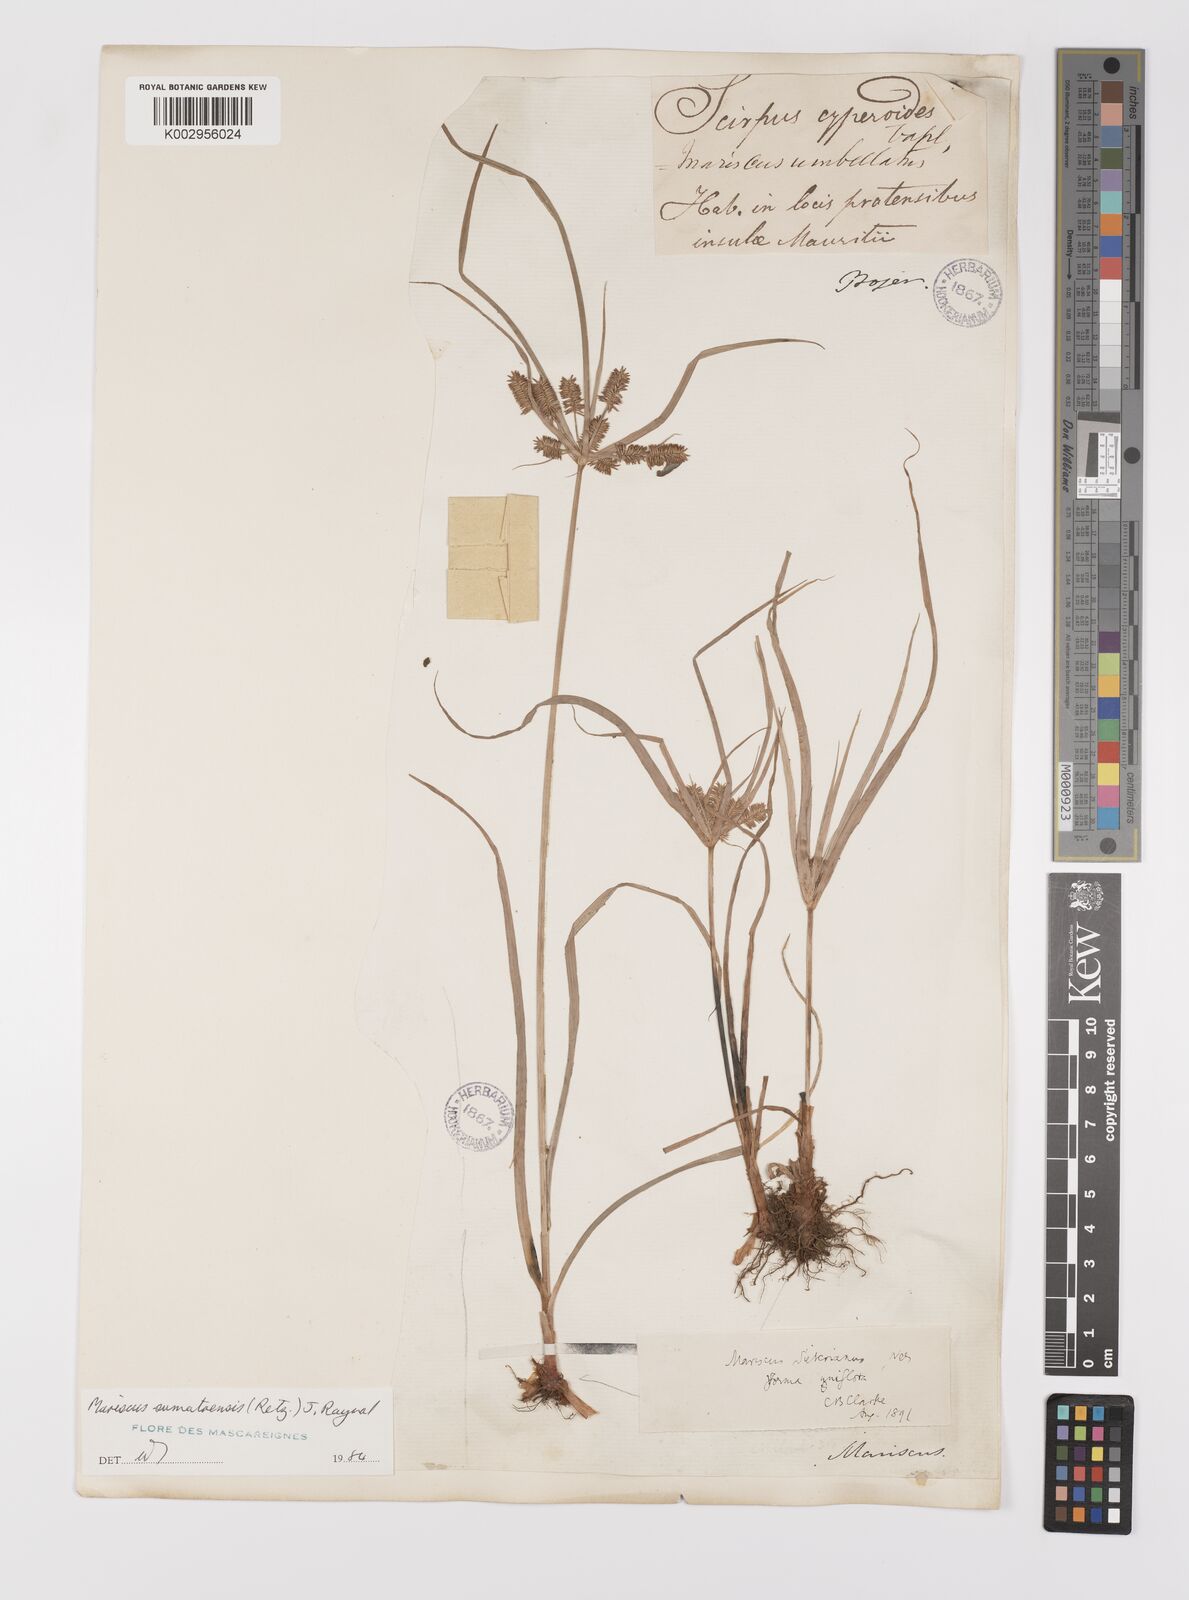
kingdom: Plantae
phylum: Tracheophyta
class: Liliopsida
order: Poales
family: Cyperaceae
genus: Cyperus
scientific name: Cyperus cyperoides
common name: Pacific island flat sedge
